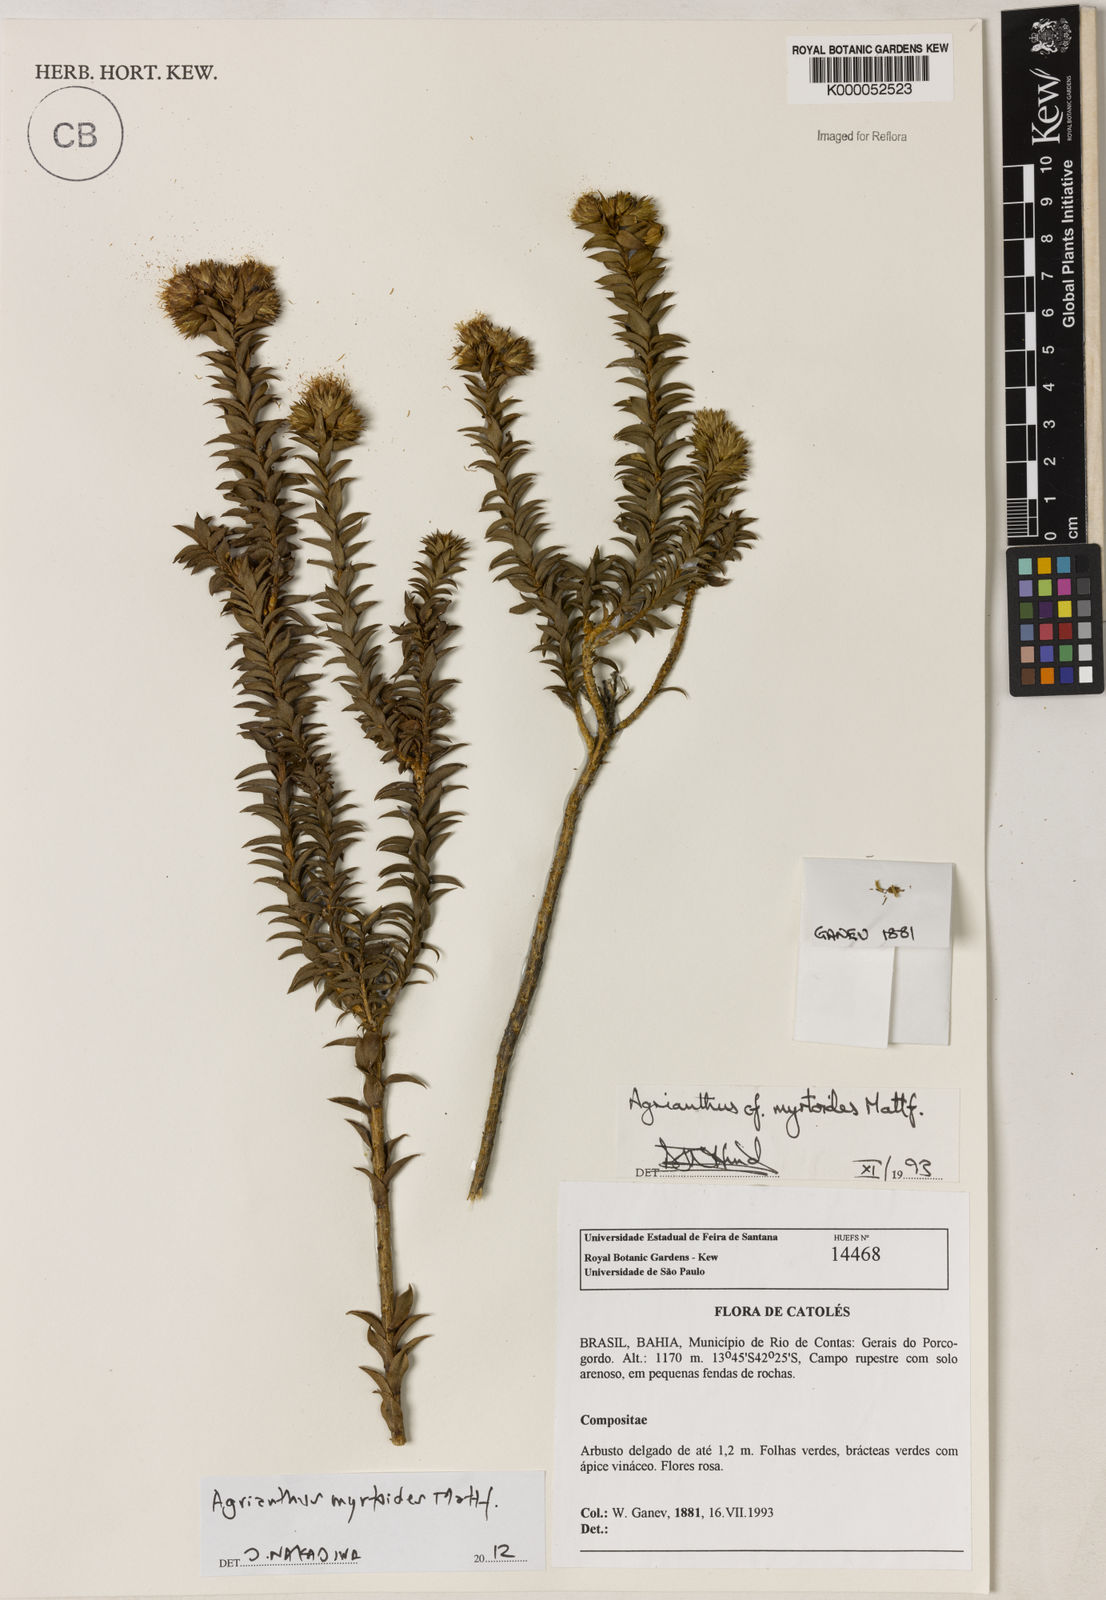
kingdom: Plantae
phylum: Tracheophyta
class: Magnoliopsida
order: Asterales
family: Asteraceae
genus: Agrianthus
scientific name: Agrianthus myrtoides
